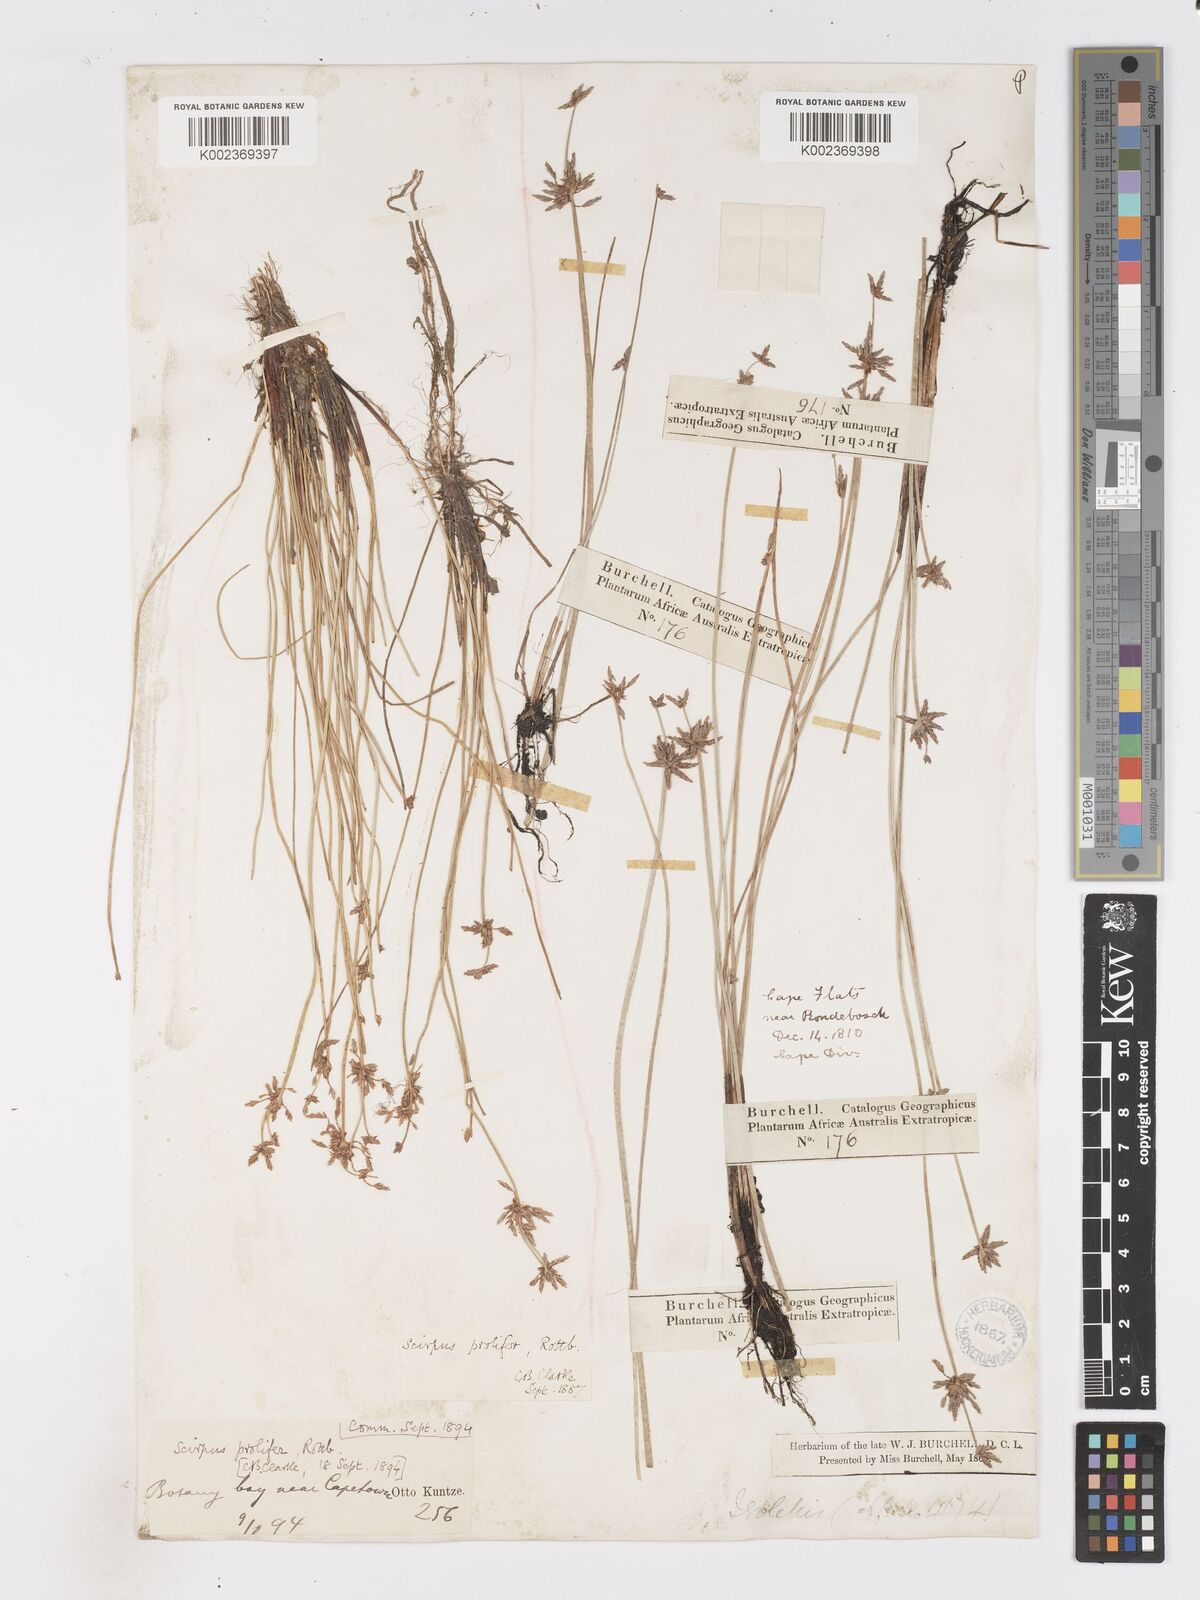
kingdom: Plantae
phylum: Tracheophyta
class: Liliopsida
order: Poales
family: Cyperaceae
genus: Isolepis
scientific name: Isolepis prolifera
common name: Proliferating bulrush
